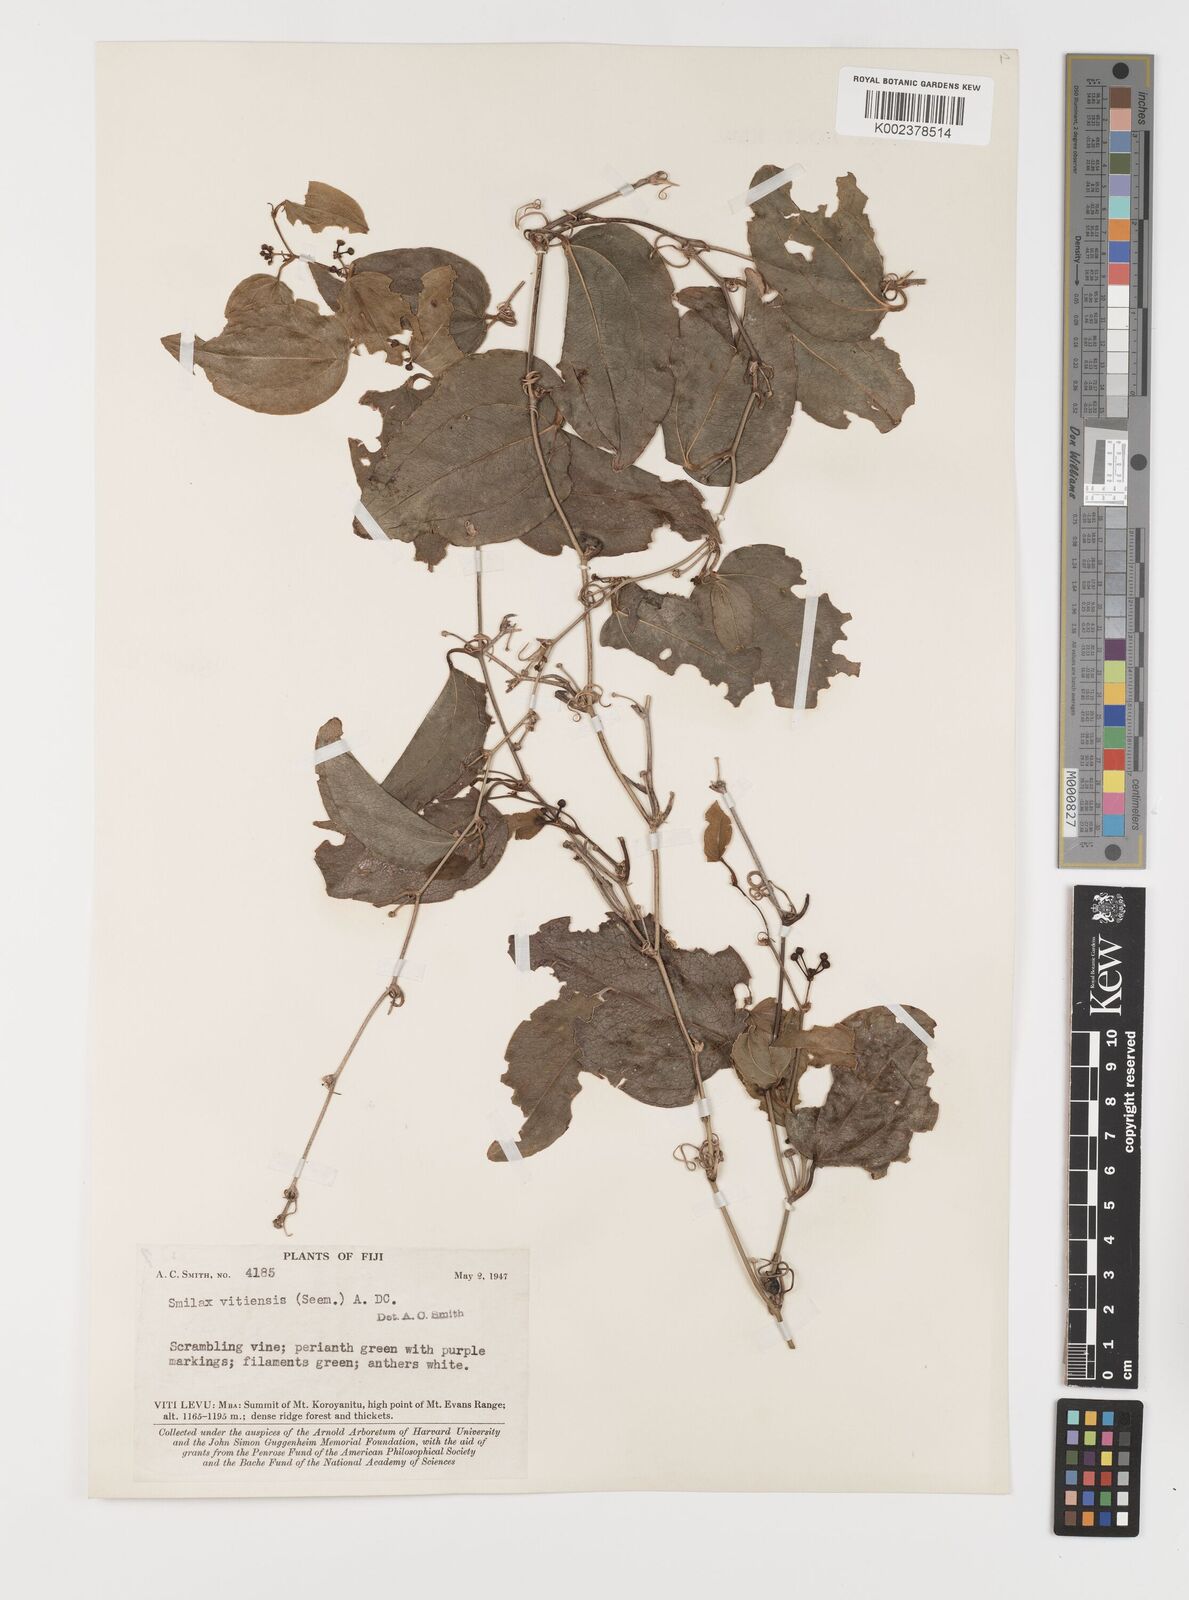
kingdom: Plantae
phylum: Tracheophyta
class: Liliopsida
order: Liliales
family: Smilacaceae
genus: Smilax
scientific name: Smilax vitiensis
